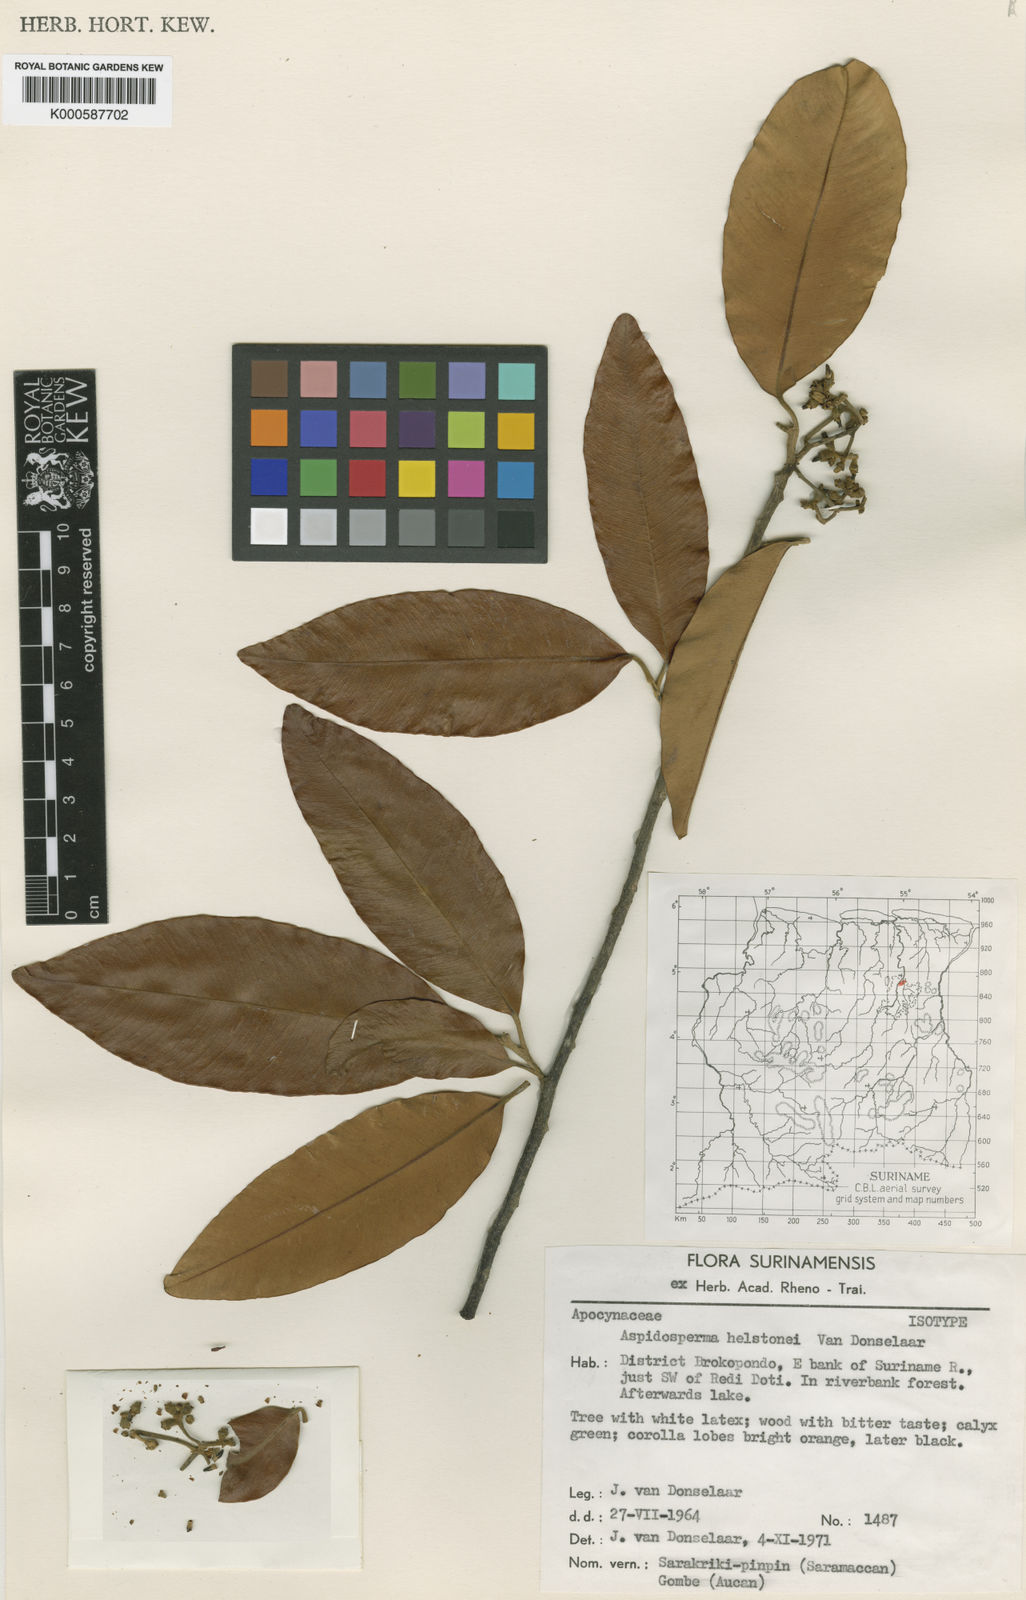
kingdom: Plantae
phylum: Tracheophyta
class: Magnoliopsida
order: Gentianales
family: Apocynaceae
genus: Aspidosperma
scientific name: Aspidosperma helstonei
